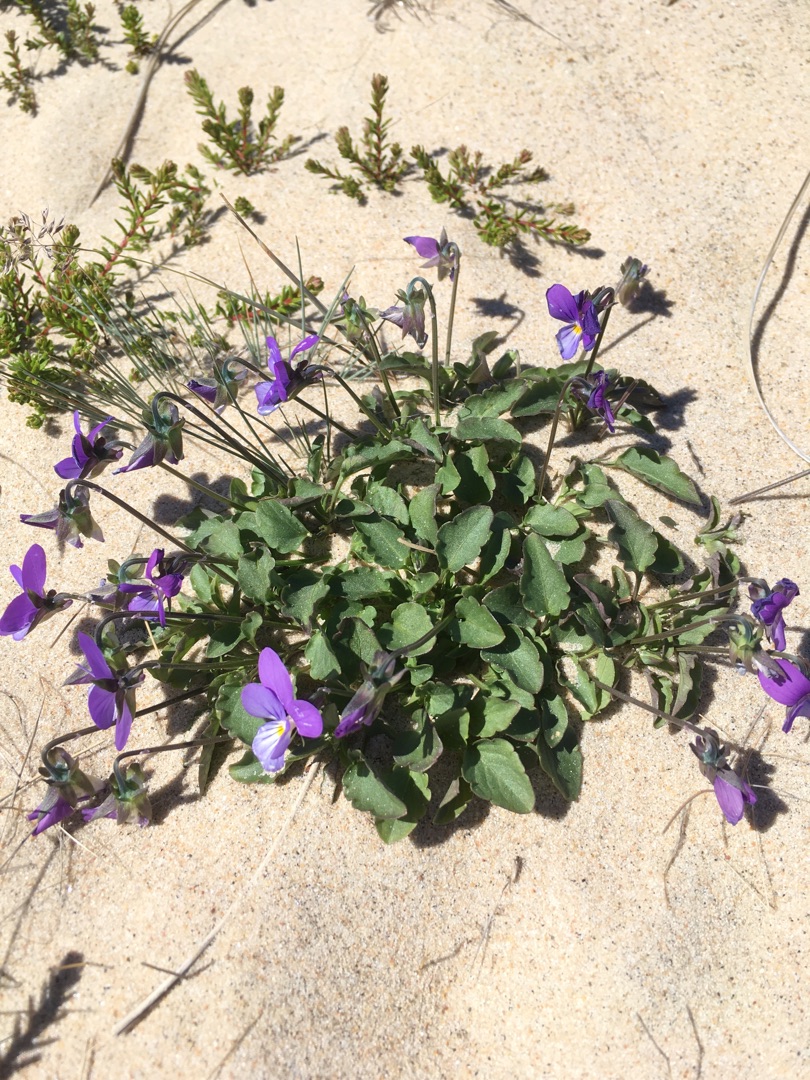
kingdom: Plantae
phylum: Tracheophyta
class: Magnoliopsida
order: Malpighiales
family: Violaceae
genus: Viola
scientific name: Viola tricolor
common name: Klit-stedmoderblomst
